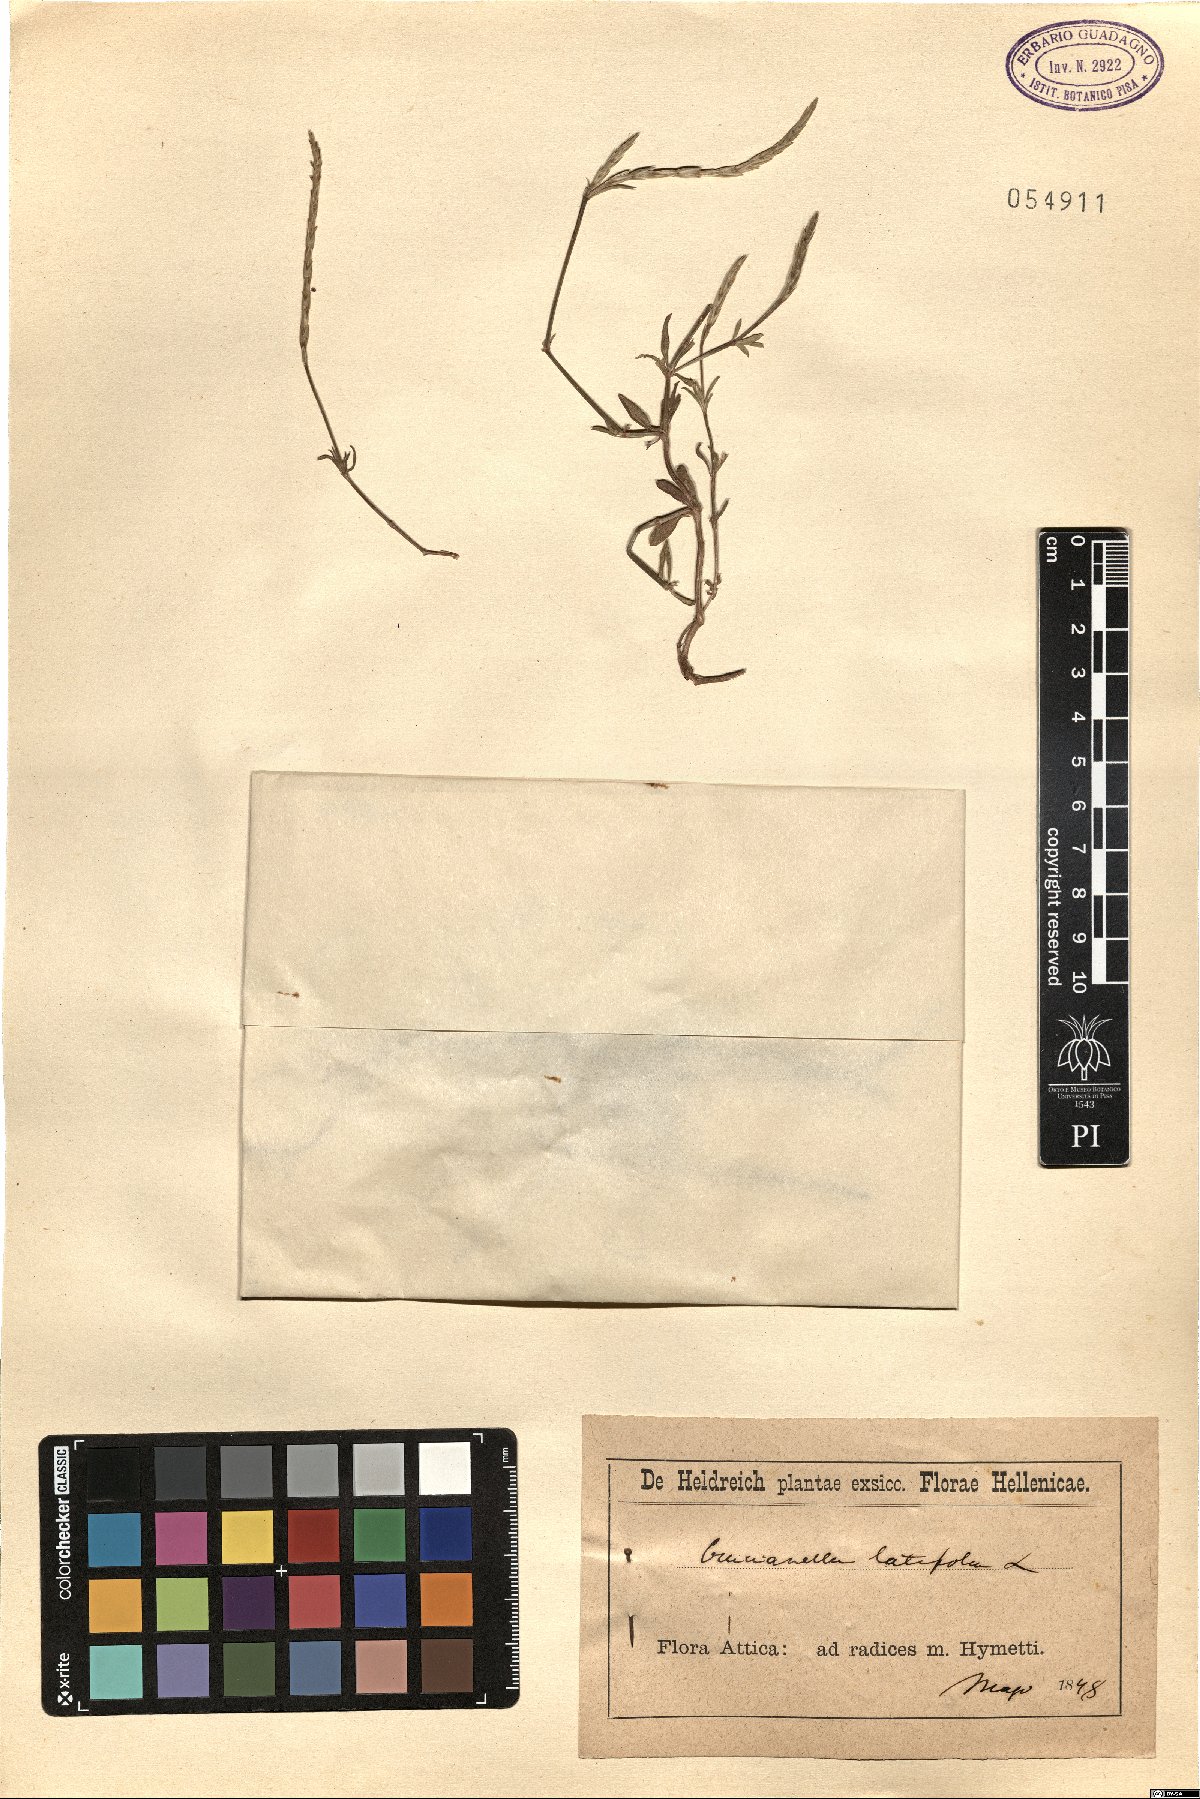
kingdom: Plantae
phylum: Tracheophyta
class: Magnoliopsida
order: Gentianales
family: Rubiaceae
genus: Crucianella
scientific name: Crucianella latifolia
